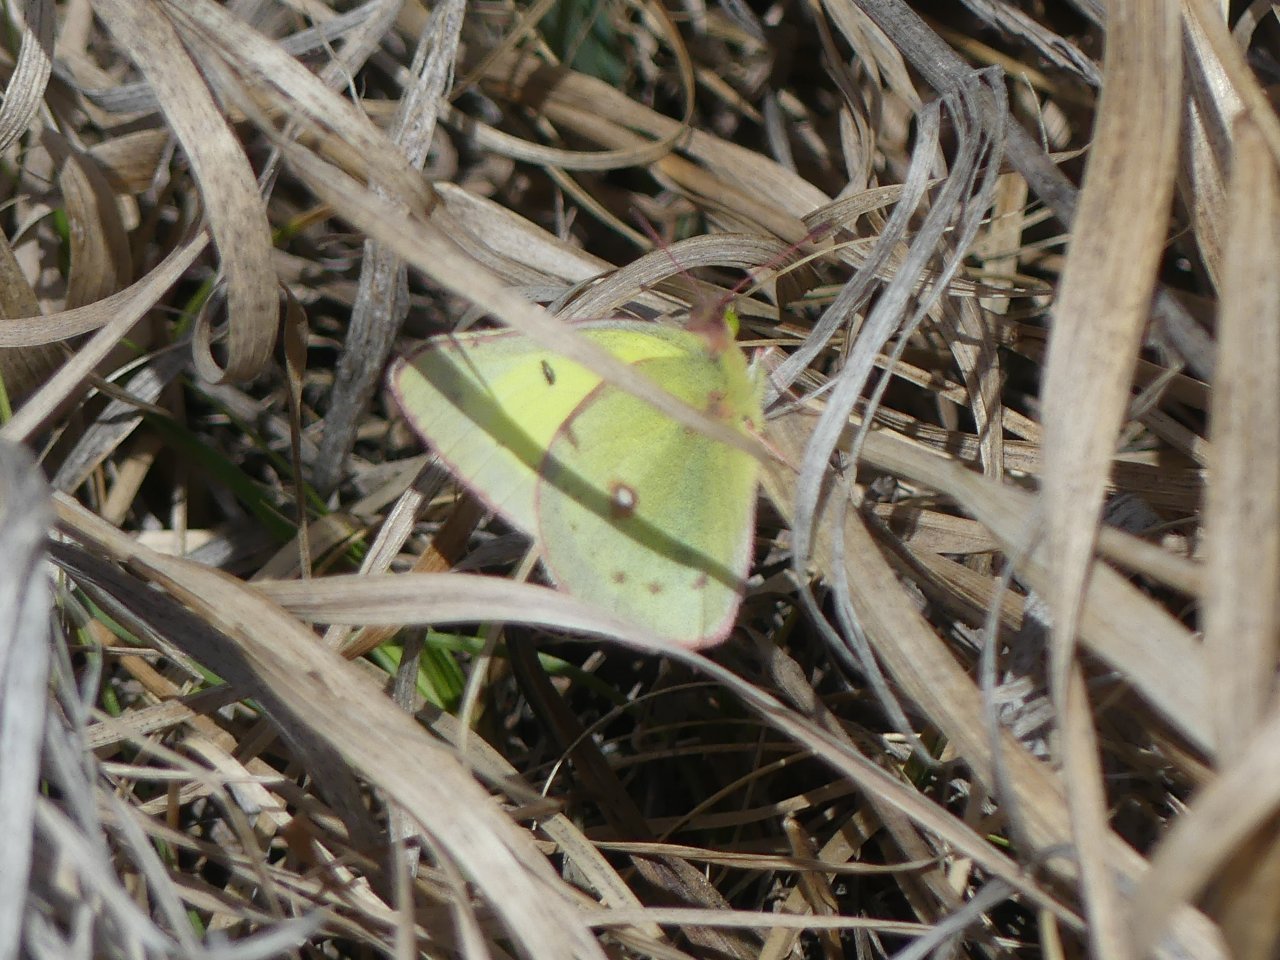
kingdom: Animalia
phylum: Arthropoda
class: Insecta
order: Lepidoptera
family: Pieridae
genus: Colias
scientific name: Colias philodice
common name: Clouded Sulphur
